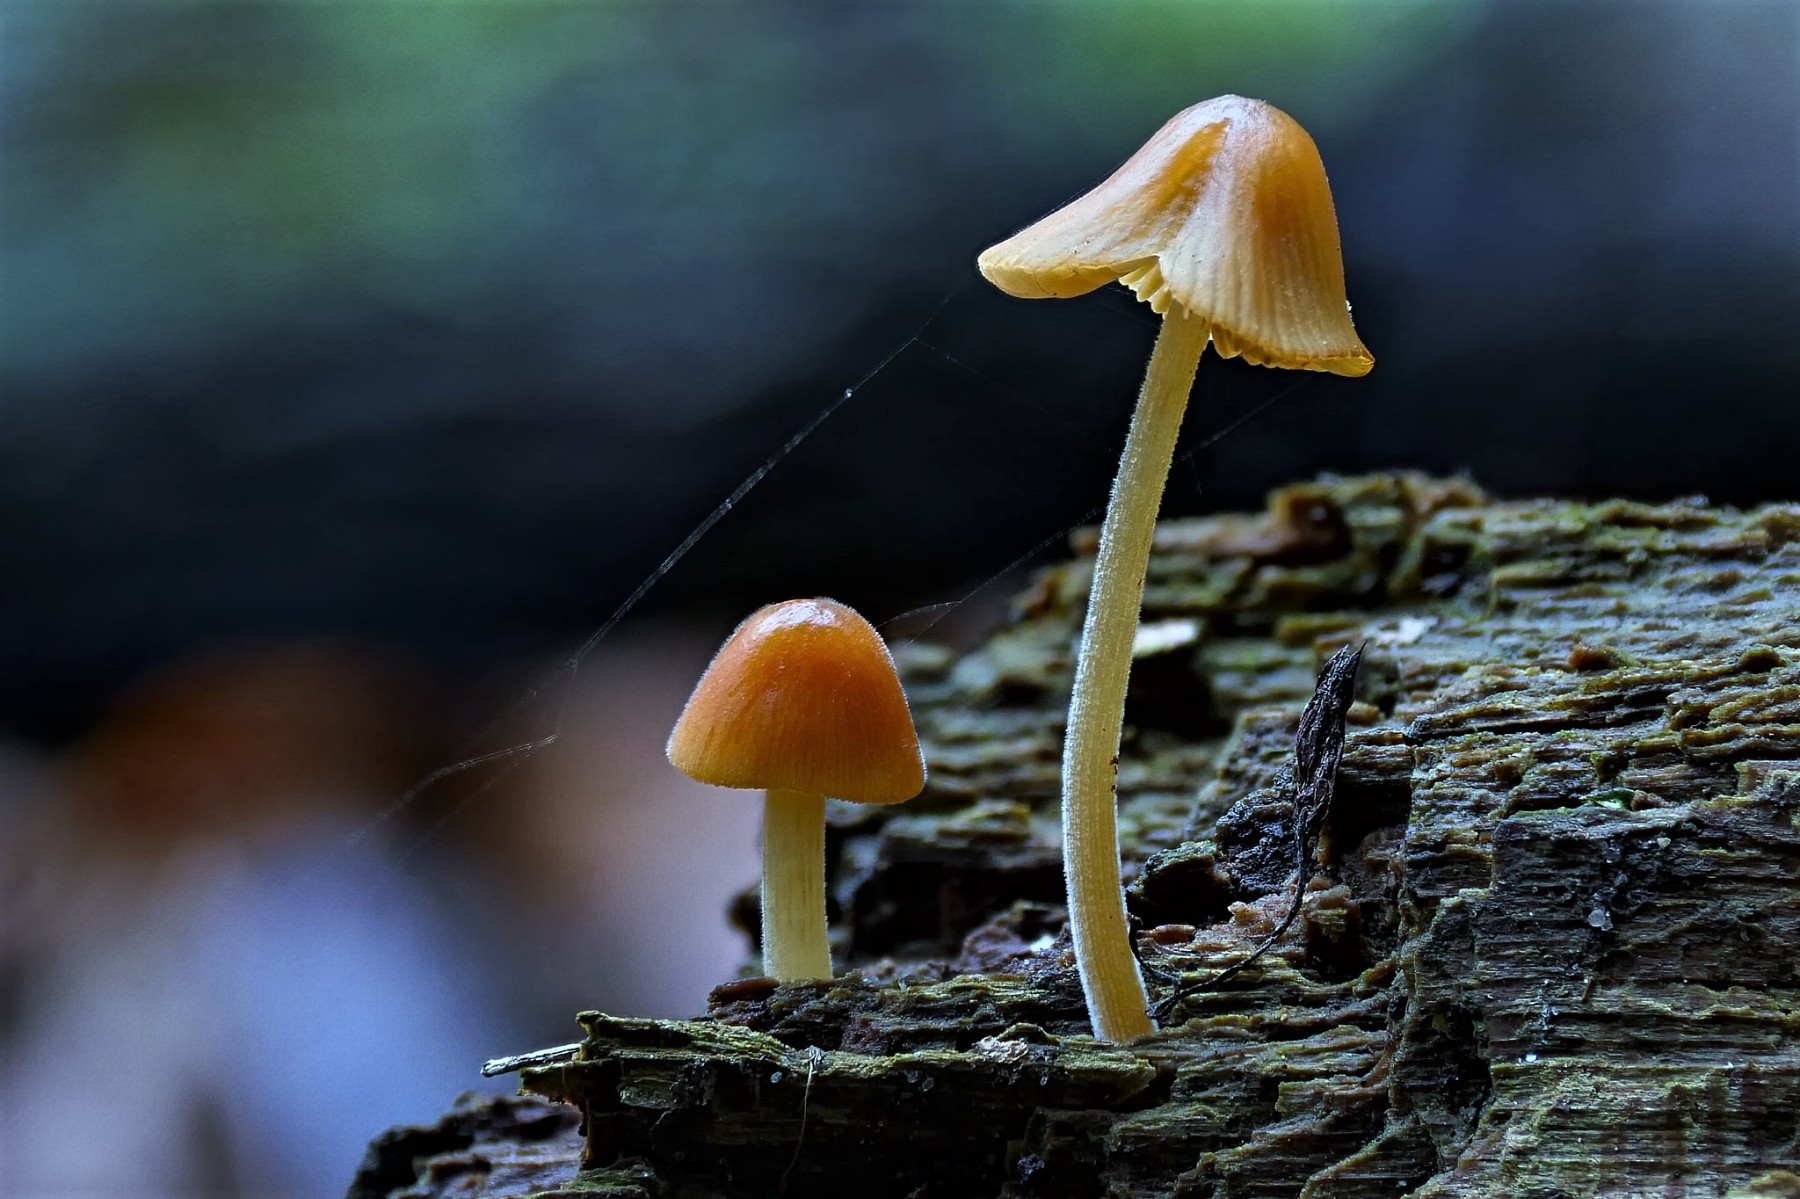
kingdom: Fungi
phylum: Basidiomycota
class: Agaricomycetes
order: Agaricales
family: Bolbitiaceae
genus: Conocybe
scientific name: Conocybe subpubescens
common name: krat-keglehat
